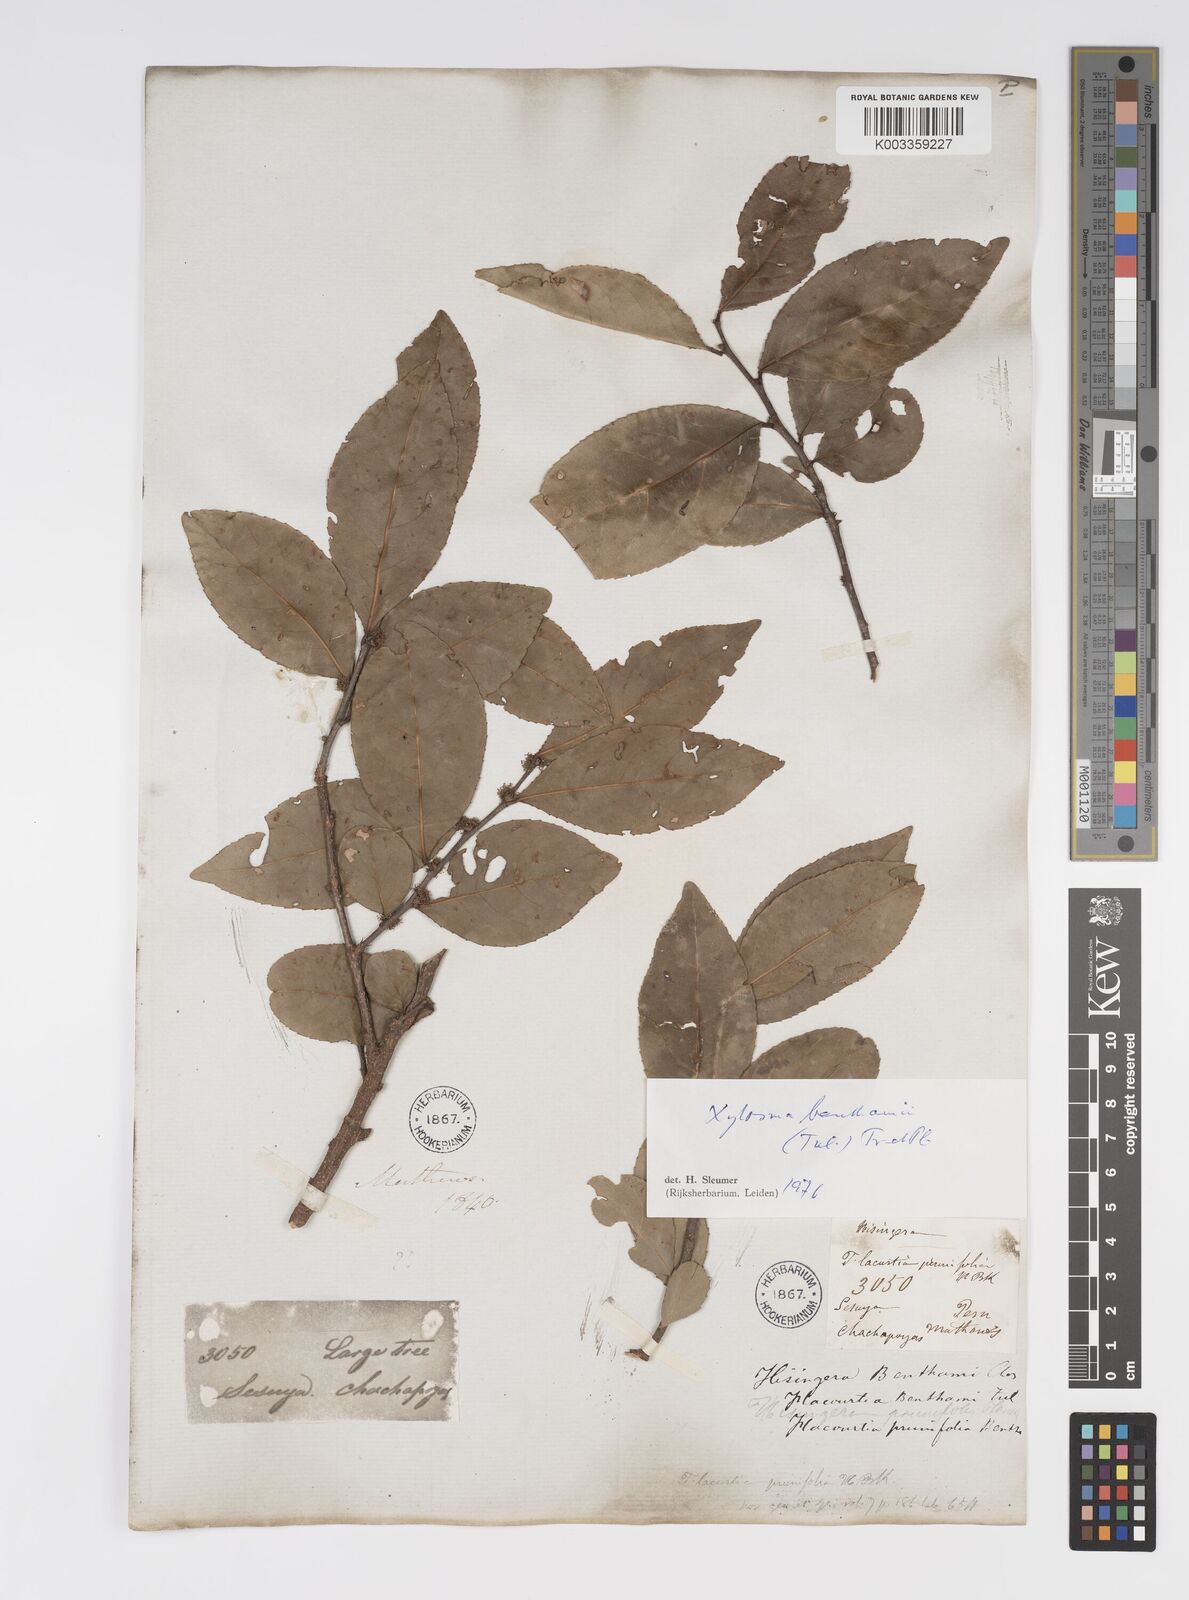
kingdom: Plantae
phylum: Tracheophyta
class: Magnoliopsida
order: Malpighiales
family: Salicaceae
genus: Xylosma
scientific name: Xylosma benthamii
